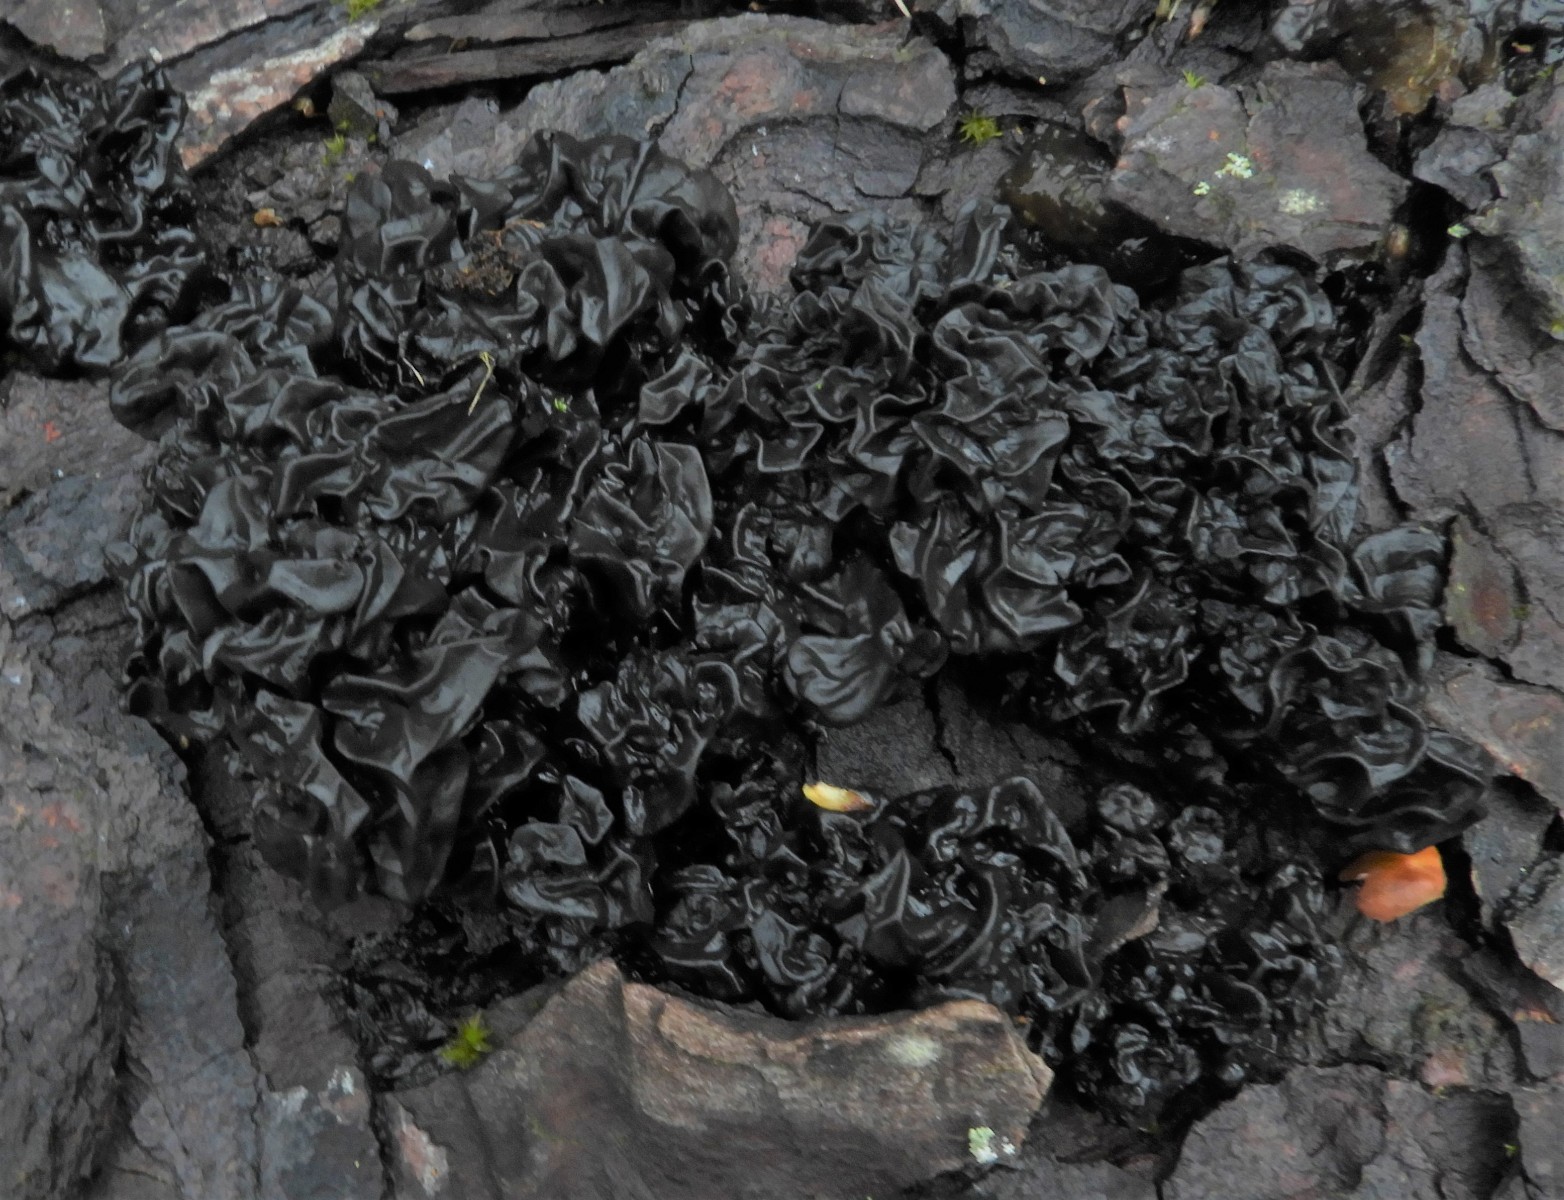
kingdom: Fungi
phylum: Basidiomycota
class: Agaricomycetes
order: Auriculariales
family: Auriculariaceae
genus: Exidia
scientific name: Exidia nigricans
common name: almindelig bævretop
